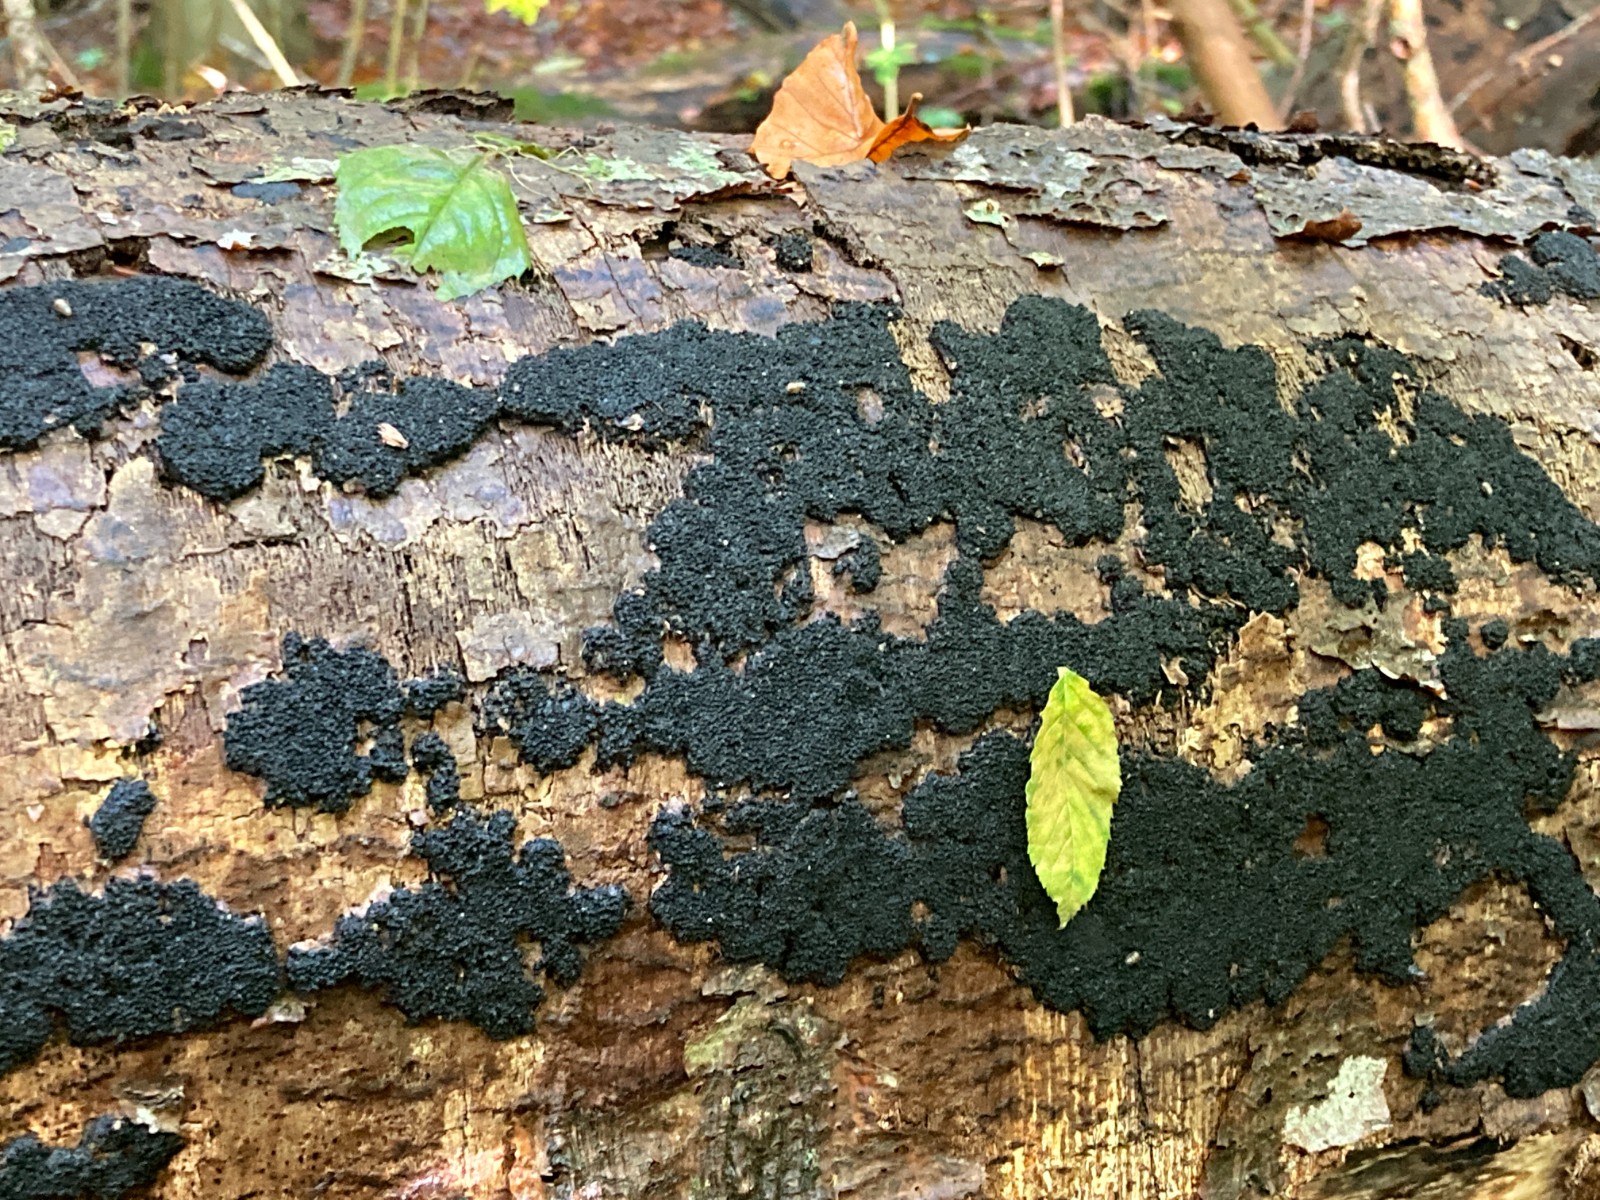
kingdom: Fungi
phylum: Ascomycota
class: Sordariomycetes
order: Xylariales
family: Diatrypaceae
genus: Eutypa
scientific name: Eutypa spinosa
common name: grov kulskorpe
